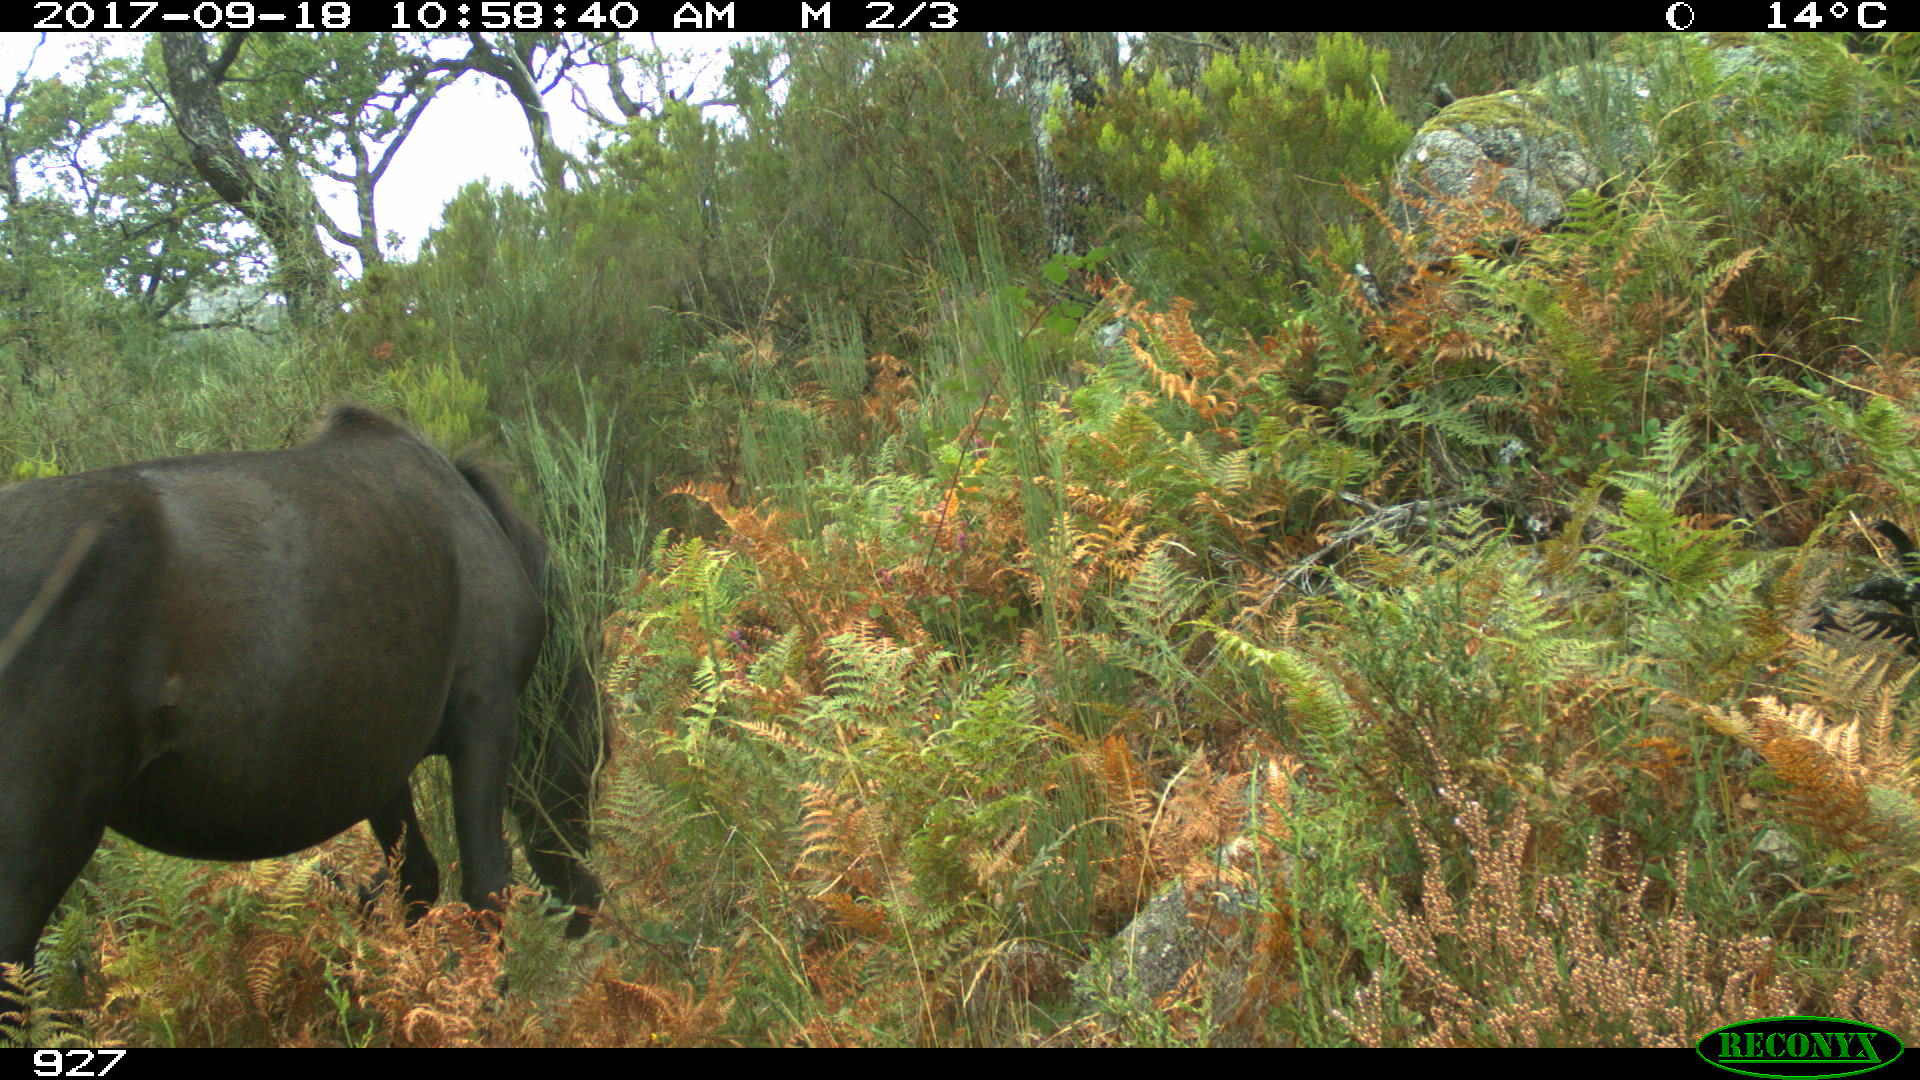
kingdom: Animalia
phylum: Chordata
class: Mammalia
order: Perissodactyla
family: Equidae
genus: Equus
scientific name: Equus caballus
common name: Horse
